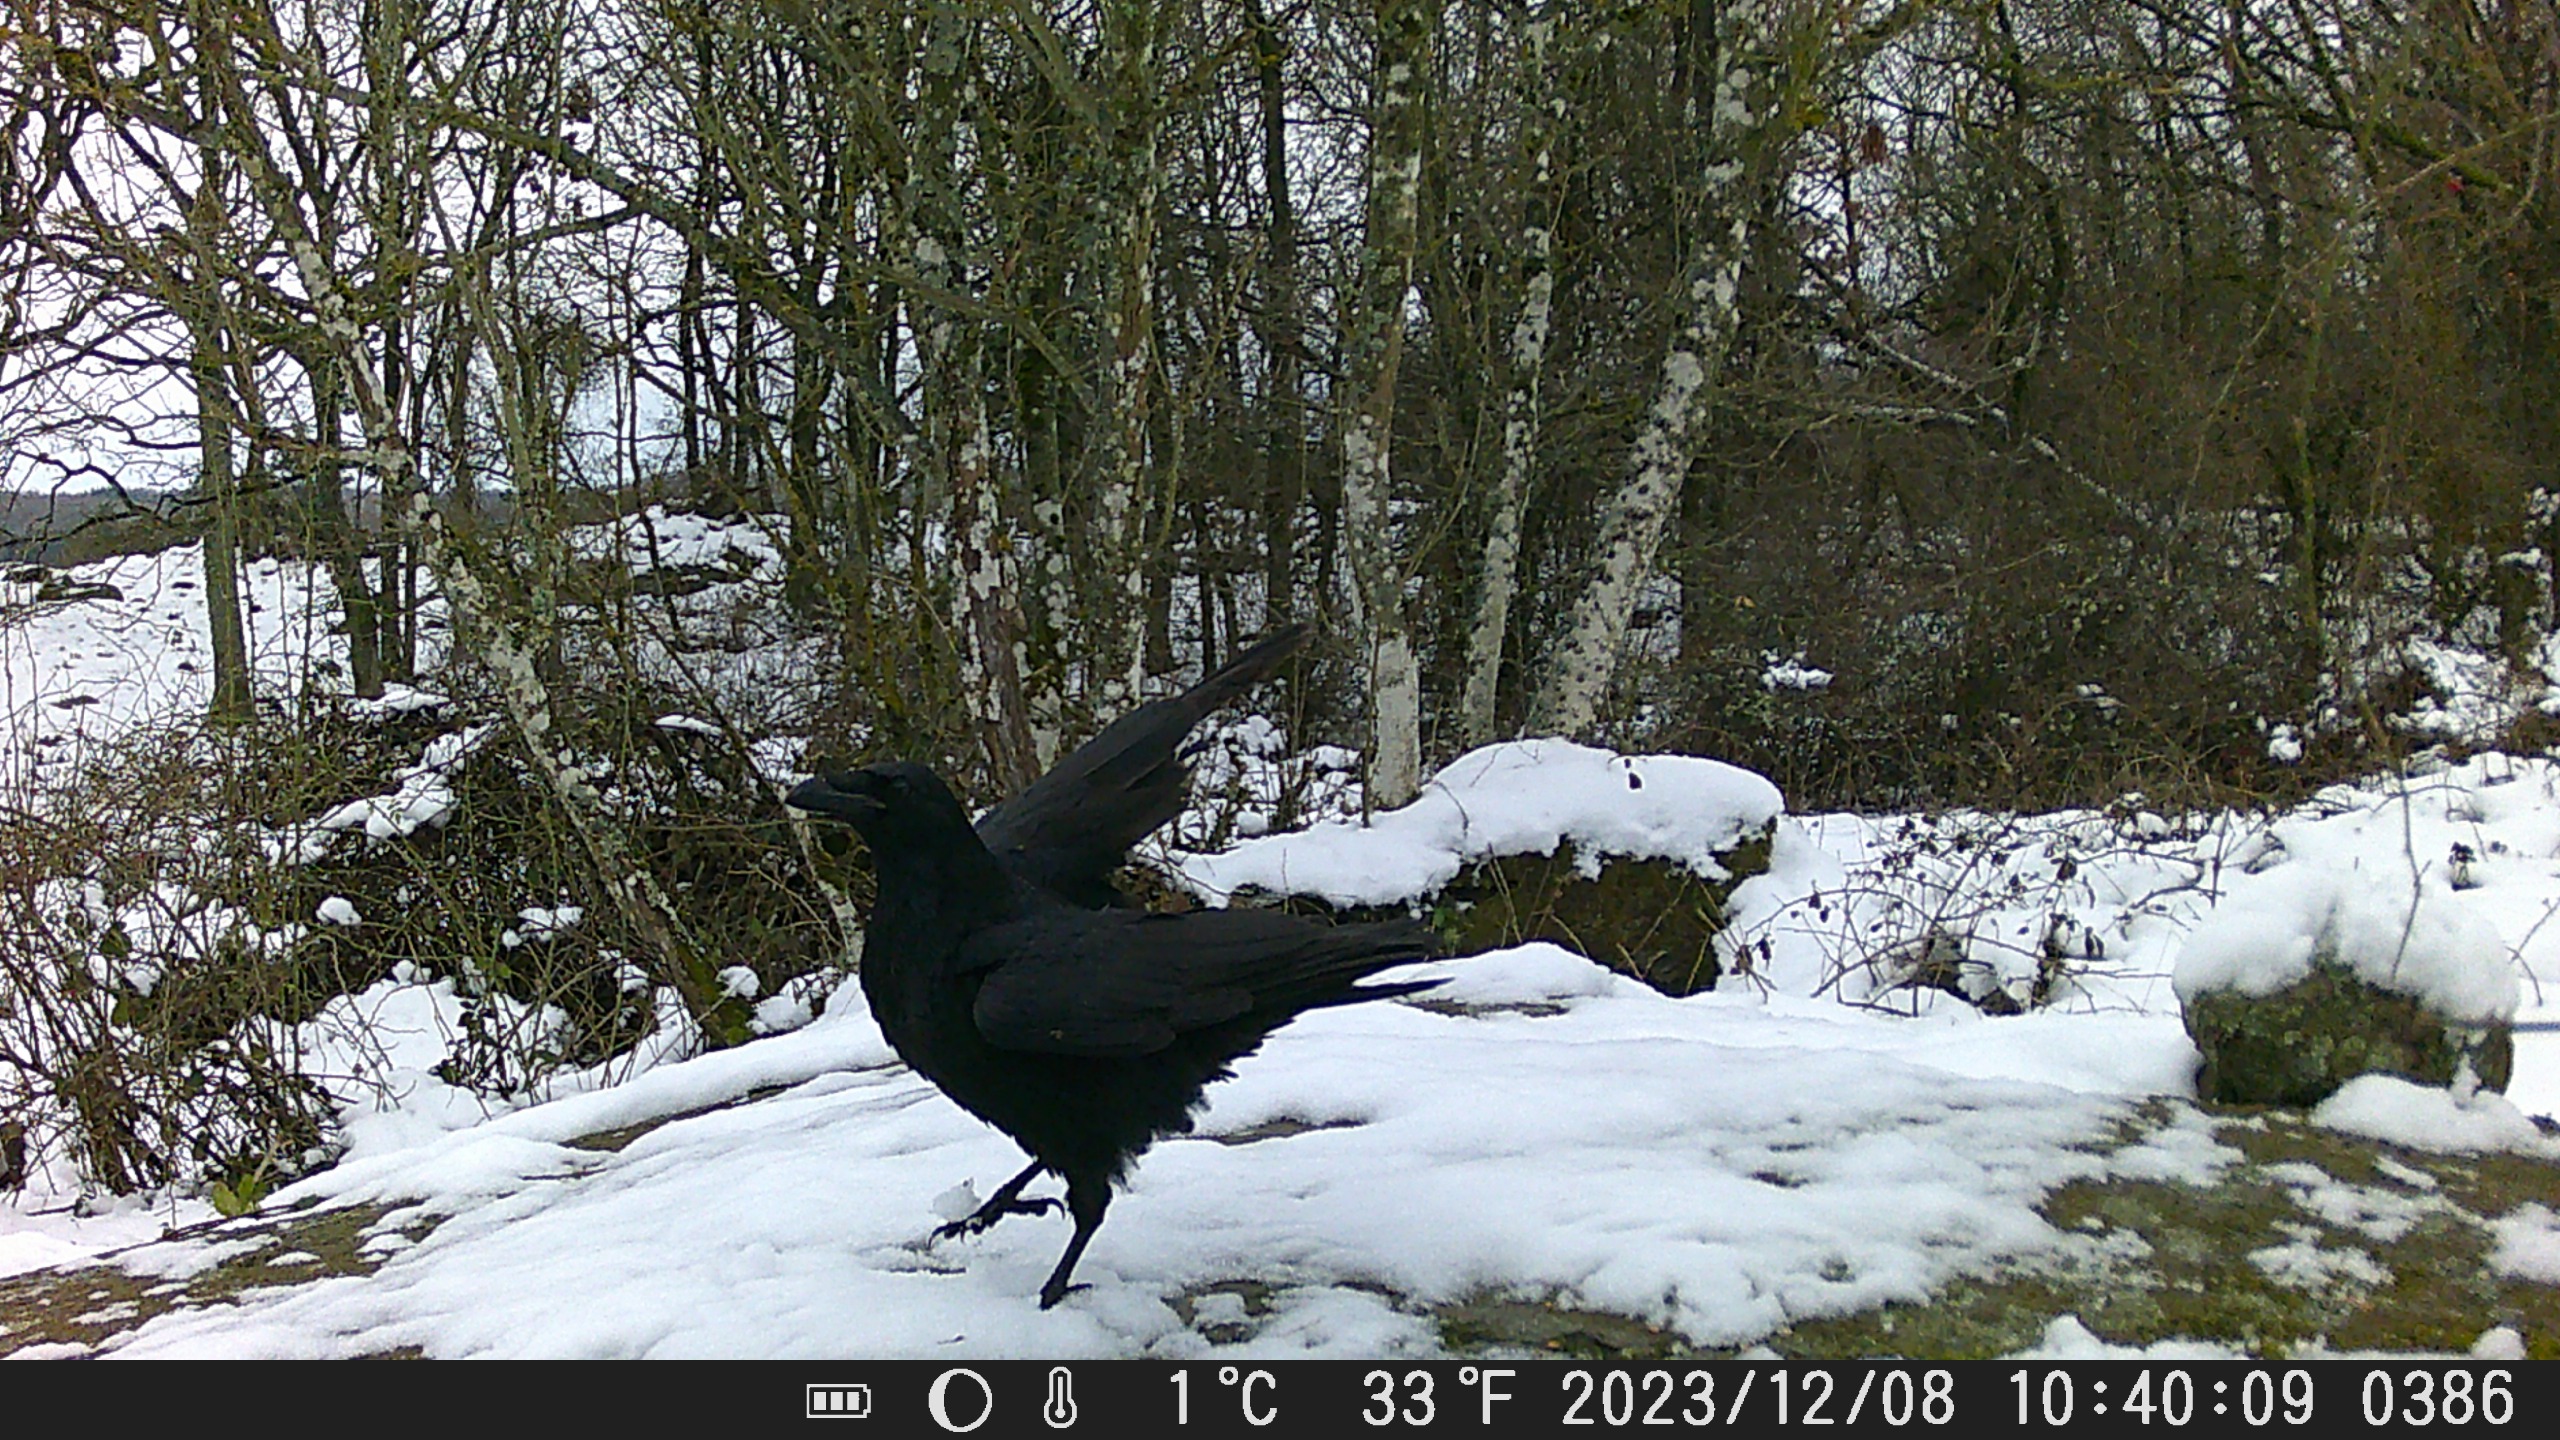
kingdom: Animalia
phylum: Chordata
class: Aves
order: Passeriformes
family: Corvidae
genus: Corvus
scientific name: Corvus corax
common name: Ravn
